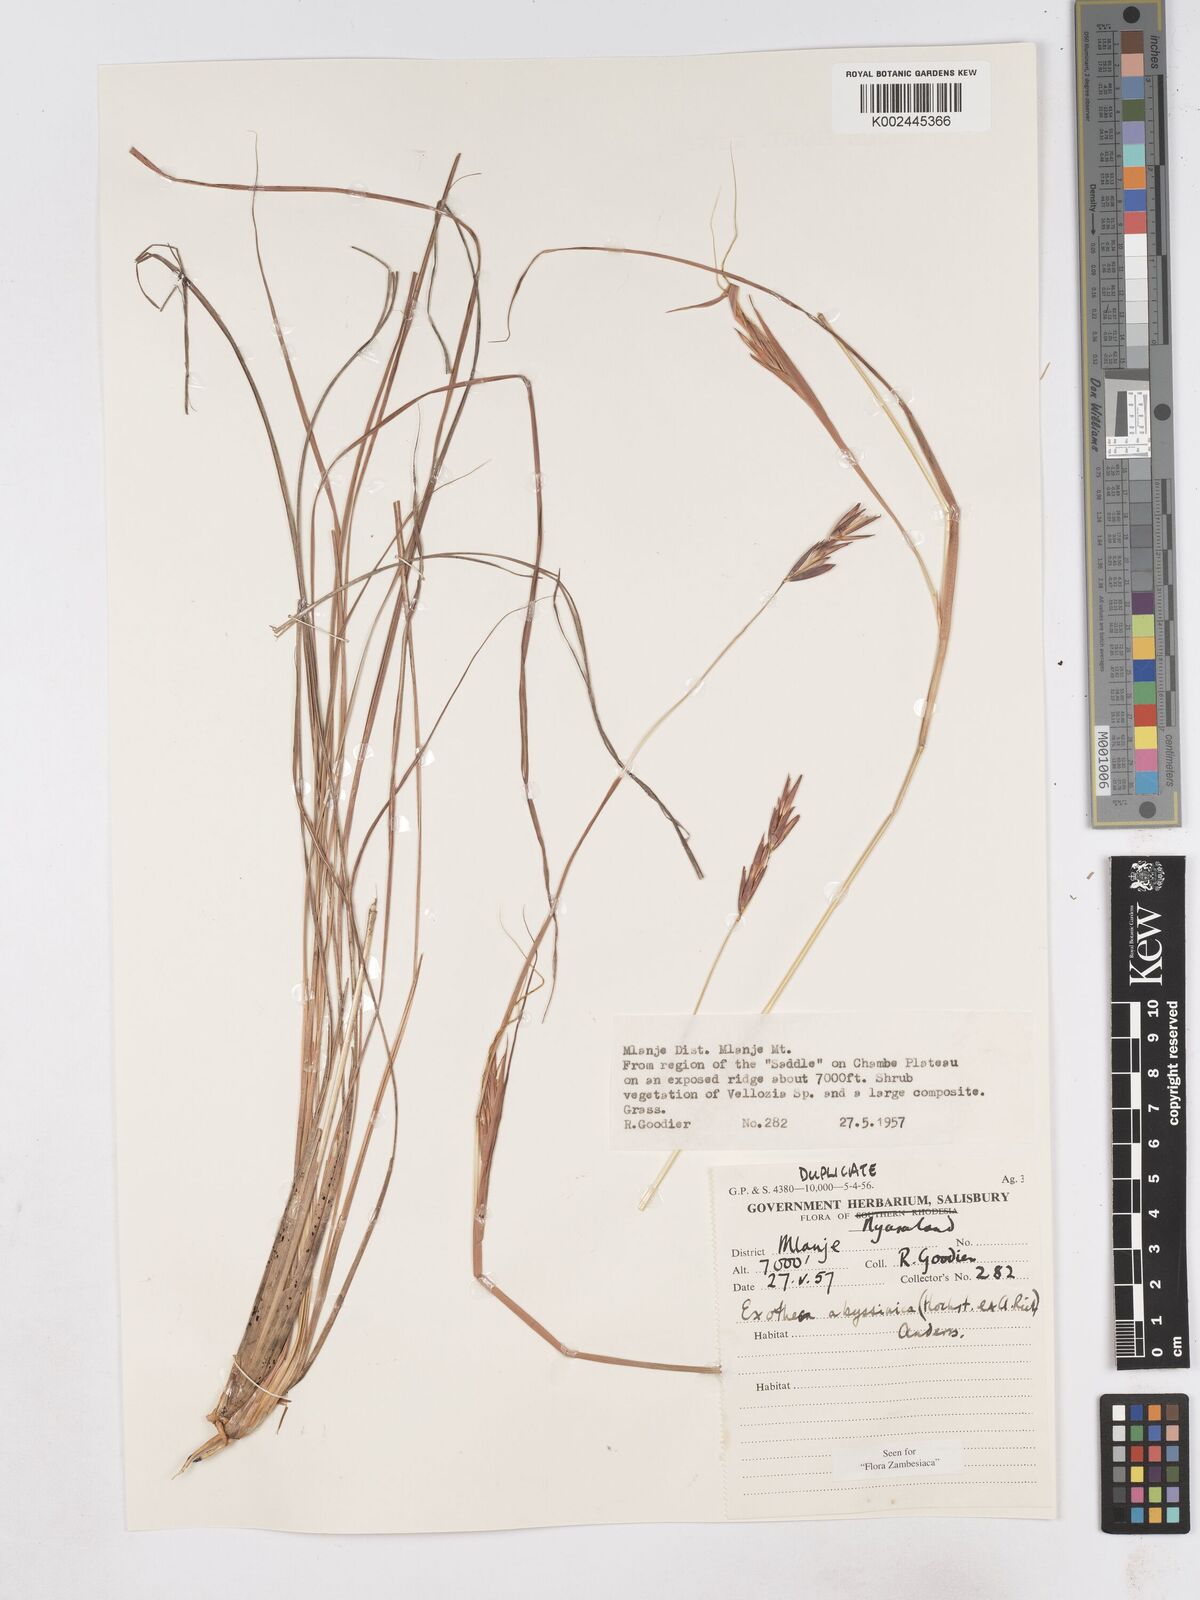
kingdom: Plantae
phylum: Tracheophyta
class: Liliopsida
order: Poales
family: Poaceae
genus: Exotheca
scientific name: Exotheca abyssinica
